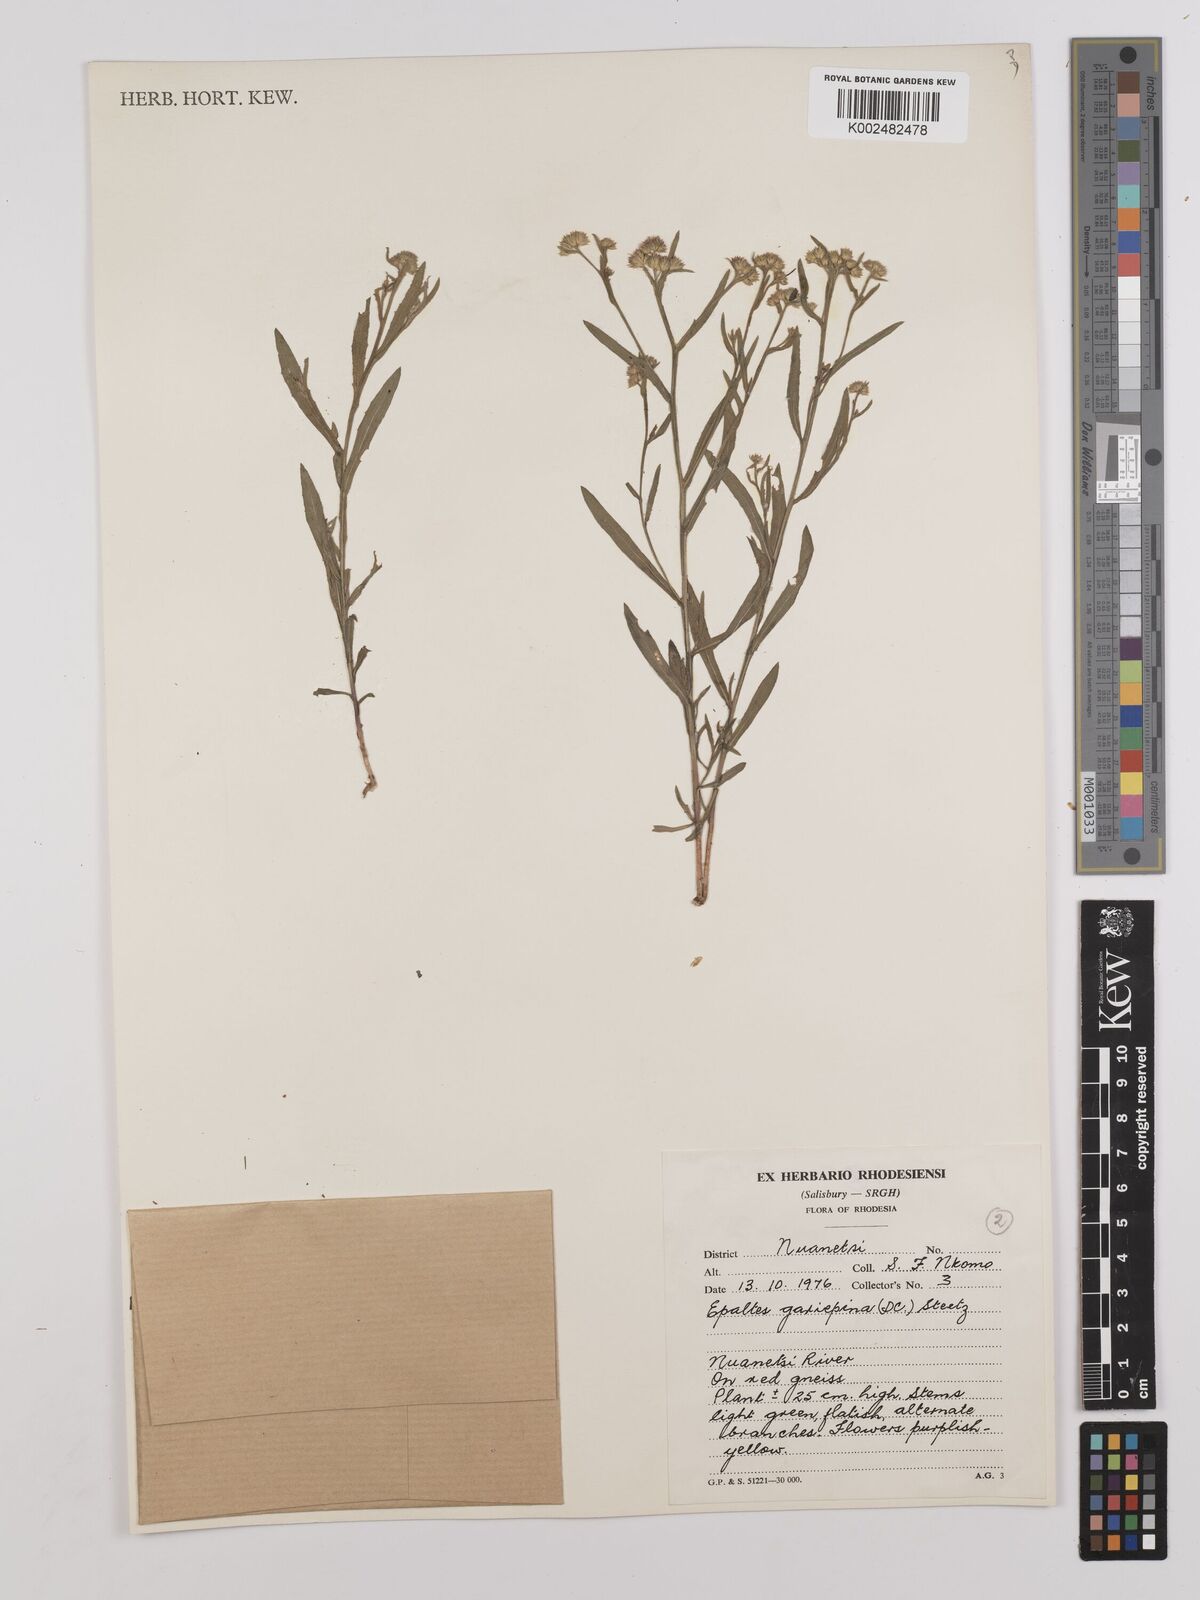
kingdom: Plantae
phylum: Tracheophyta
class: Magnoliopsida
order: Asterales
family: Asteraceae
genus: Litogyne
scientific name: Litogyne gariepina
